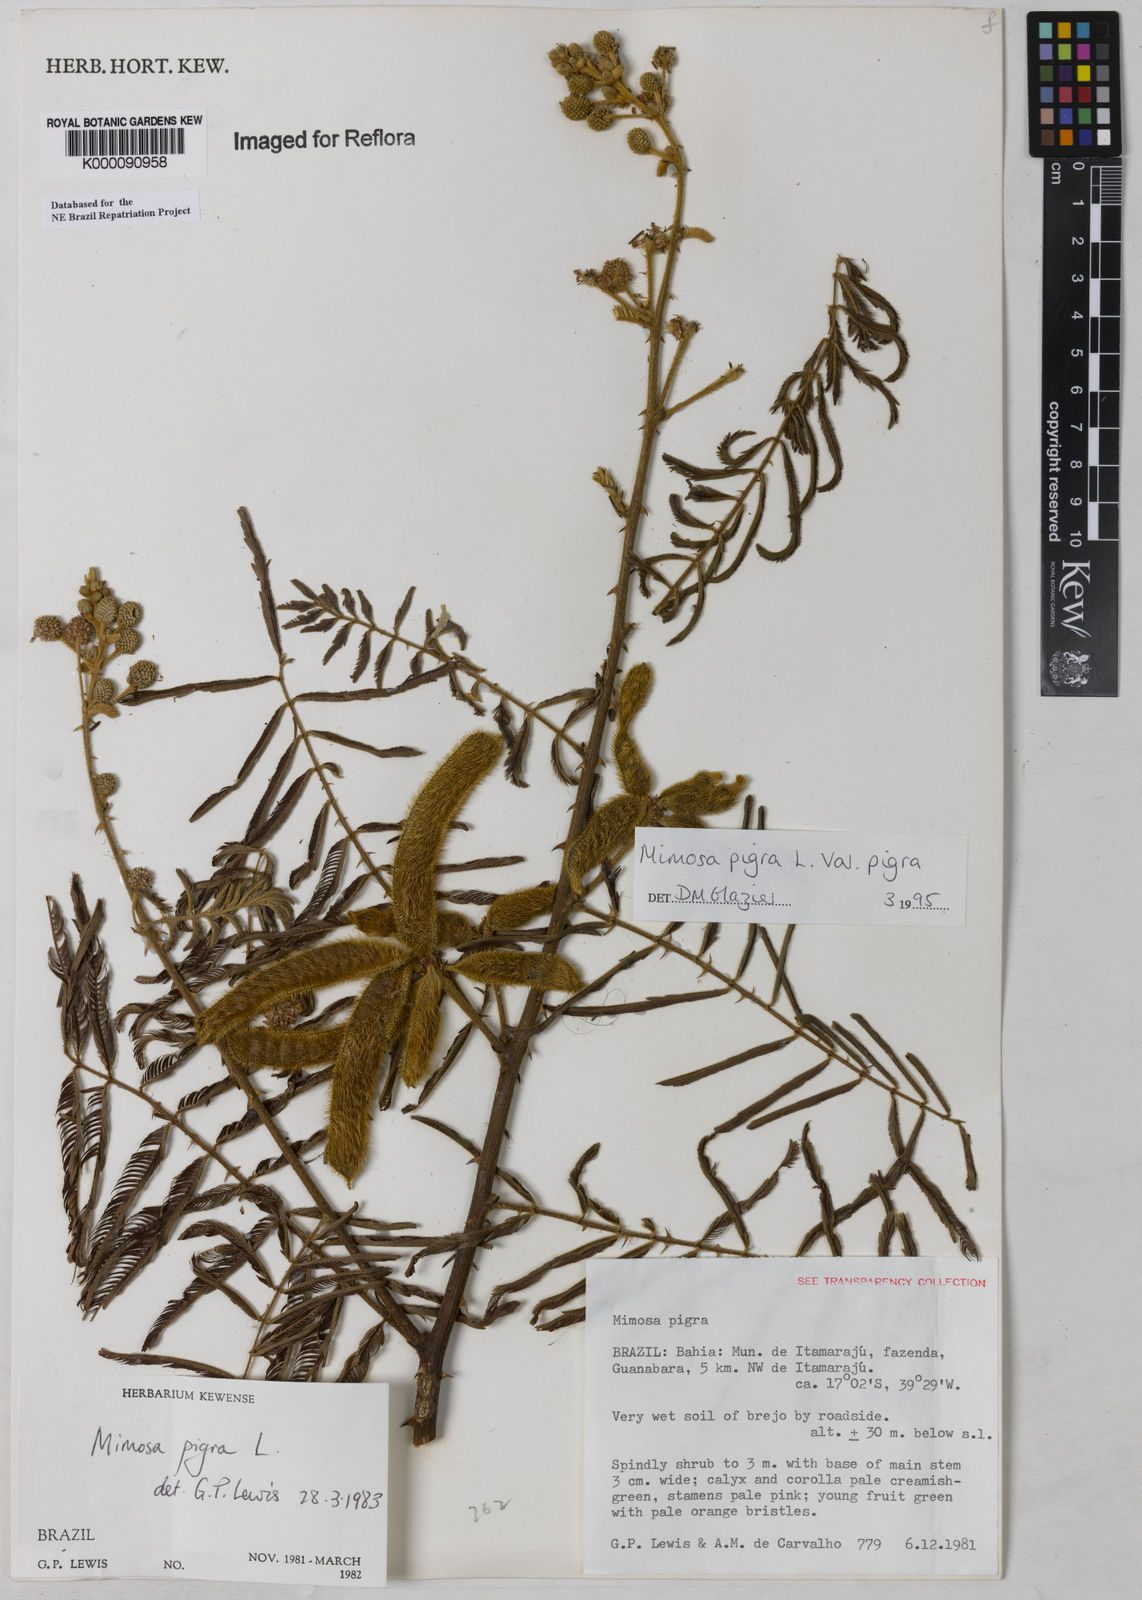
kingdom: Plantae
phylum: Tracheophyta
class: Magnoliopsida
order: Fabales
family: Fabaceae
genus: Mimosa
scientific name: Mimosa pigra
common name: Black mimosa
